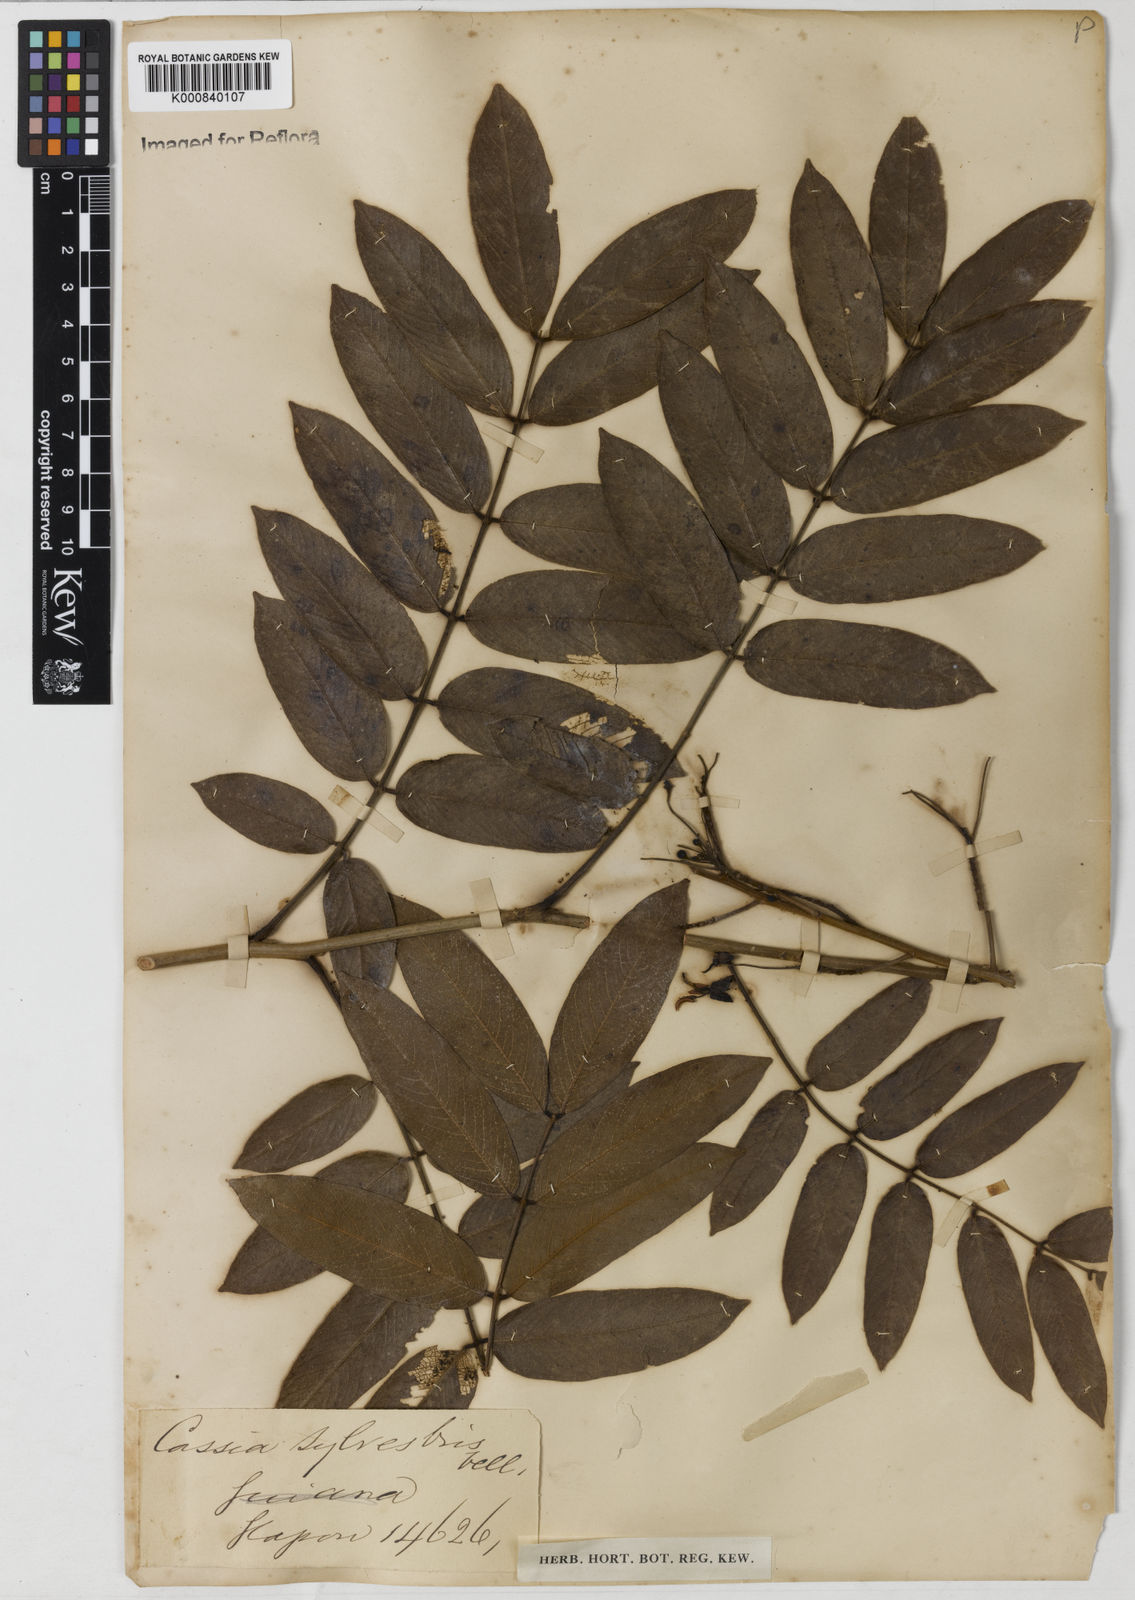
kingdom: Plantae
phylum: Tracheophyta
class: Magnoliopsida
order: Fabales
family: Fabaceae
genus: Senna
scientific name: Senna silvestris
